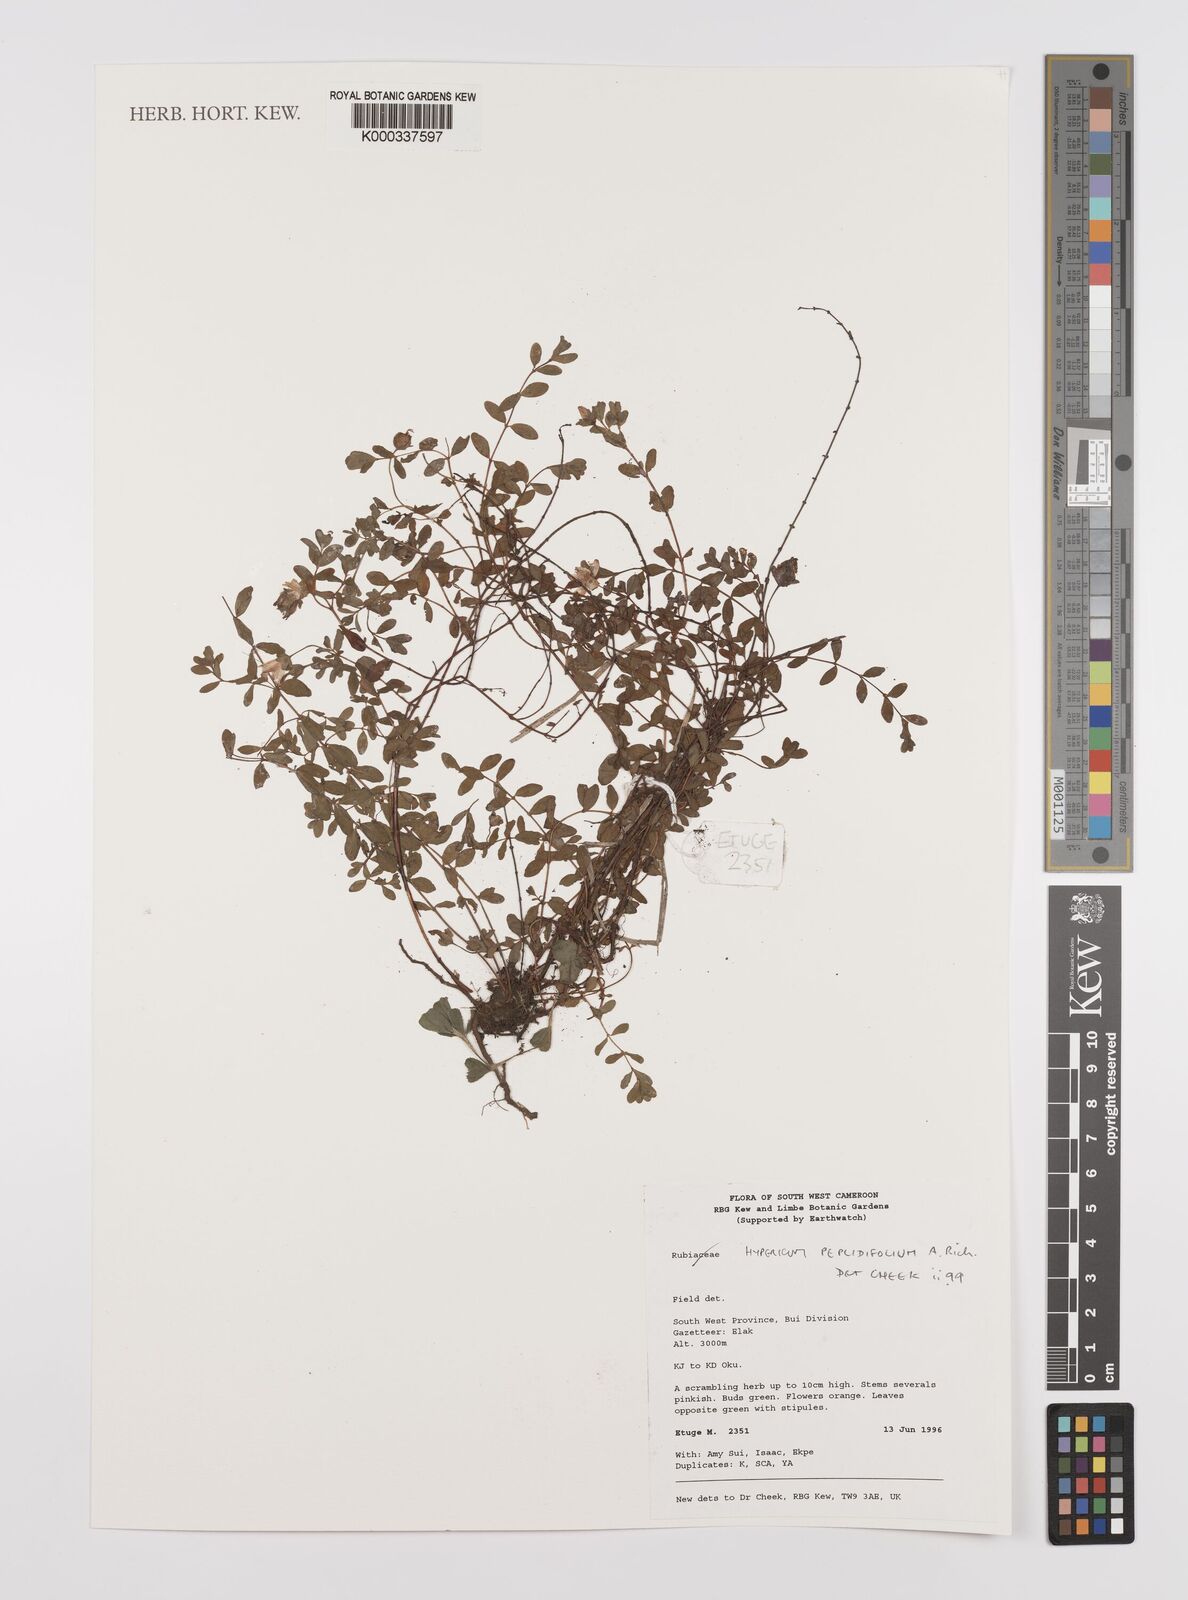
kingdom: Plantae
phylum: Tracheophyta
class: Magnoliopsida
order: Malpighiales
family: Hypericaceae
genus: Hypericum
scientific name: Hypericum peplidifolium
